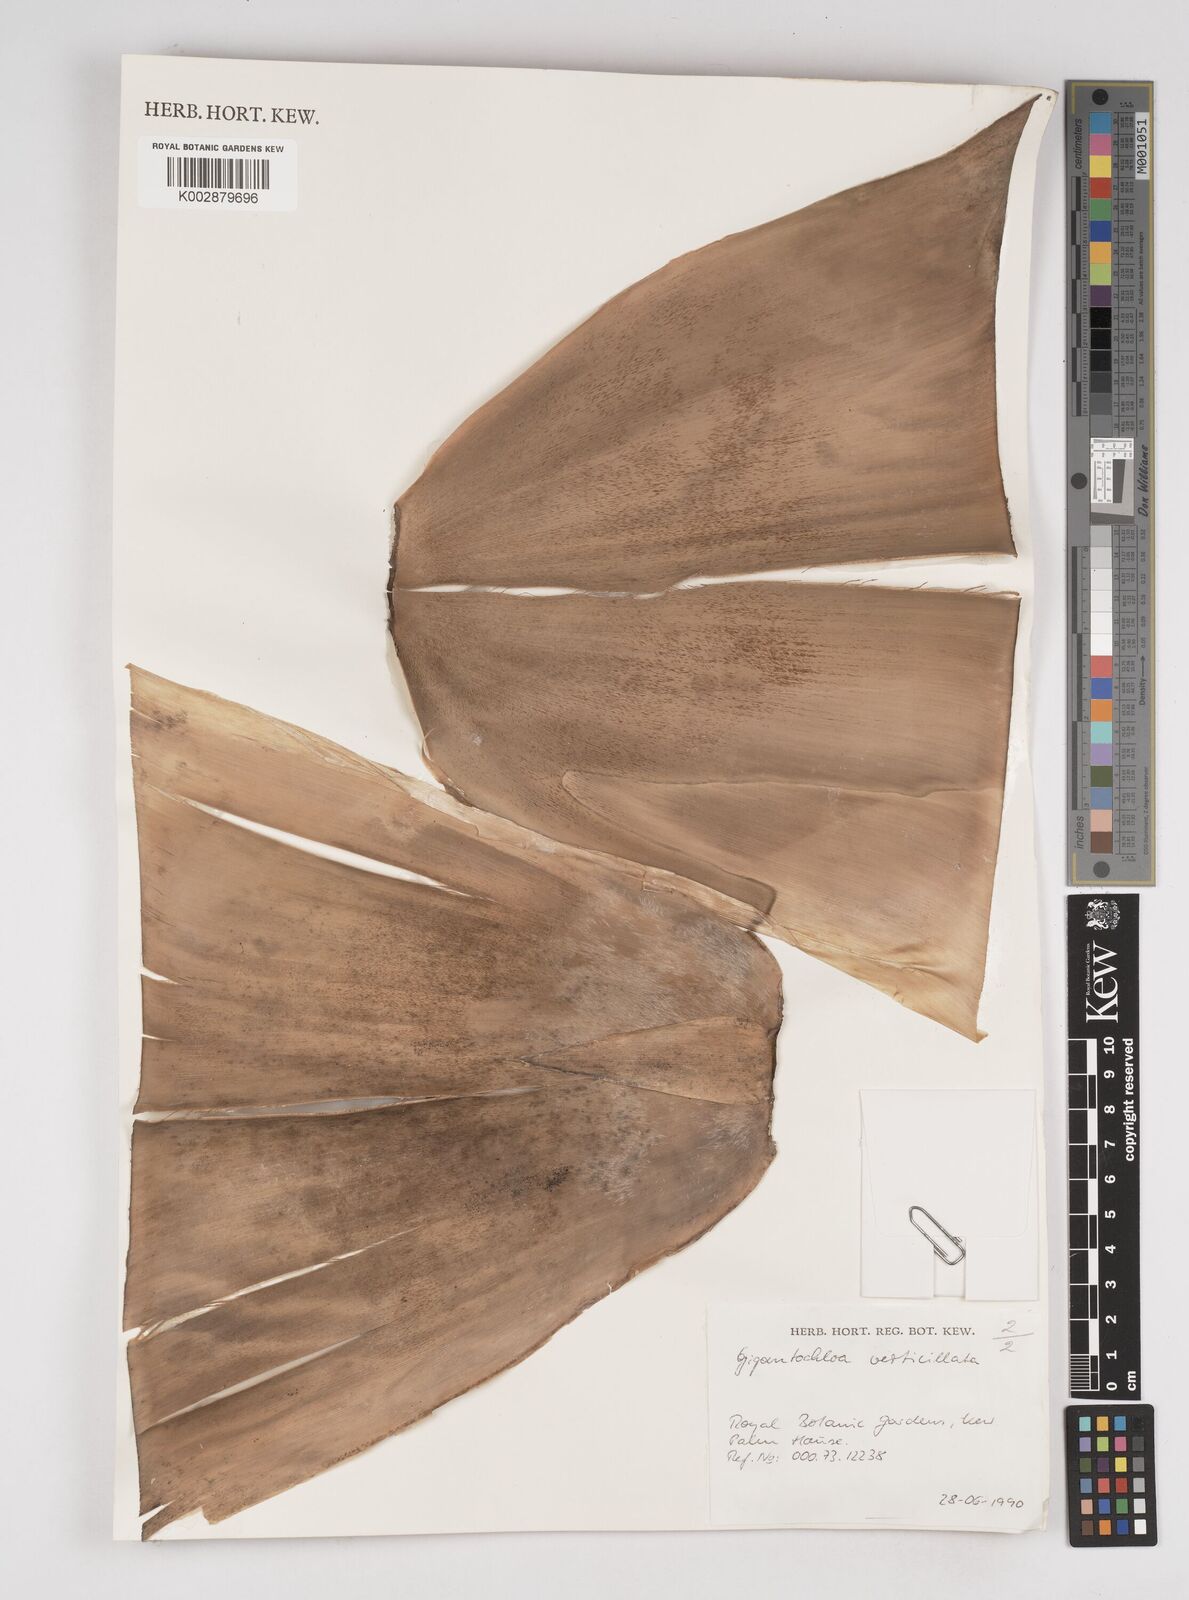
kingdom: Plantae
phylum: Tracheophyta
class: Liliopsida
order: Poales
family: Poaceae
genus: Gigantochloa
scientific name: Gigantochloa verticillata
